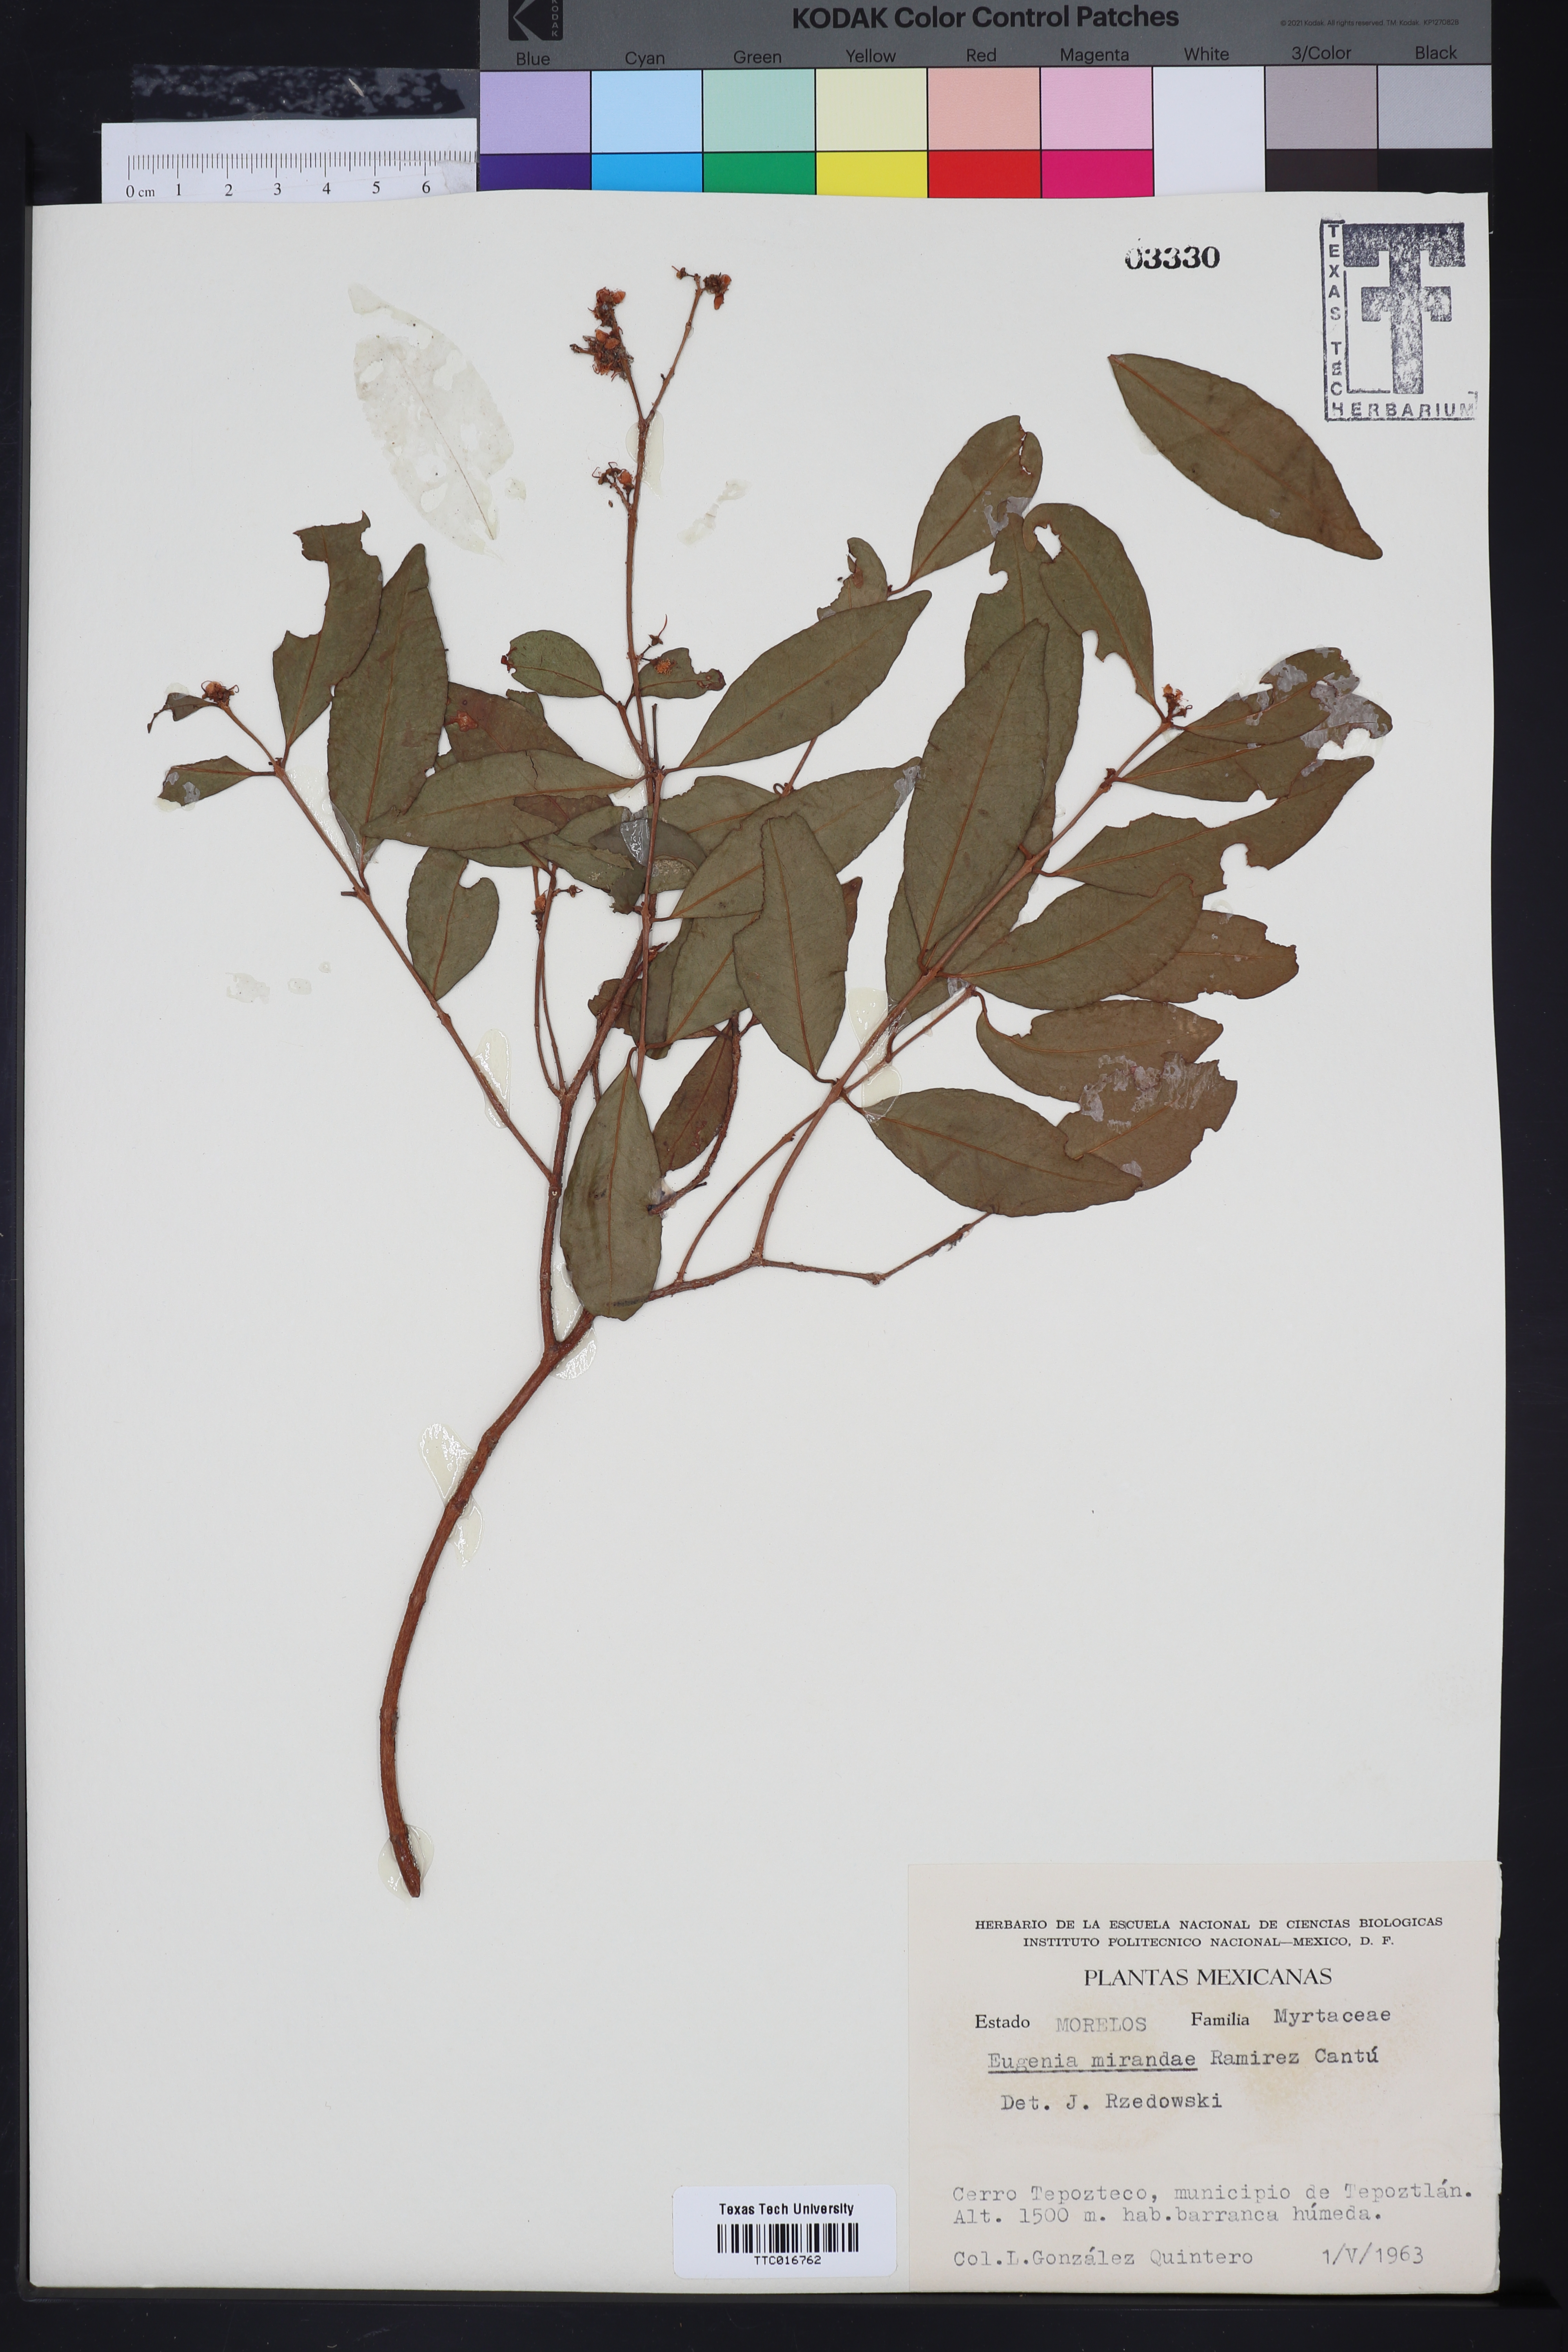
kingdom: Plantae
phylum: Tracheophyta
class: Magnoliopsida
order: Myrtales
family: Myrtaceae
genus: Eugenia
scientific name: Eugenia cantuana
